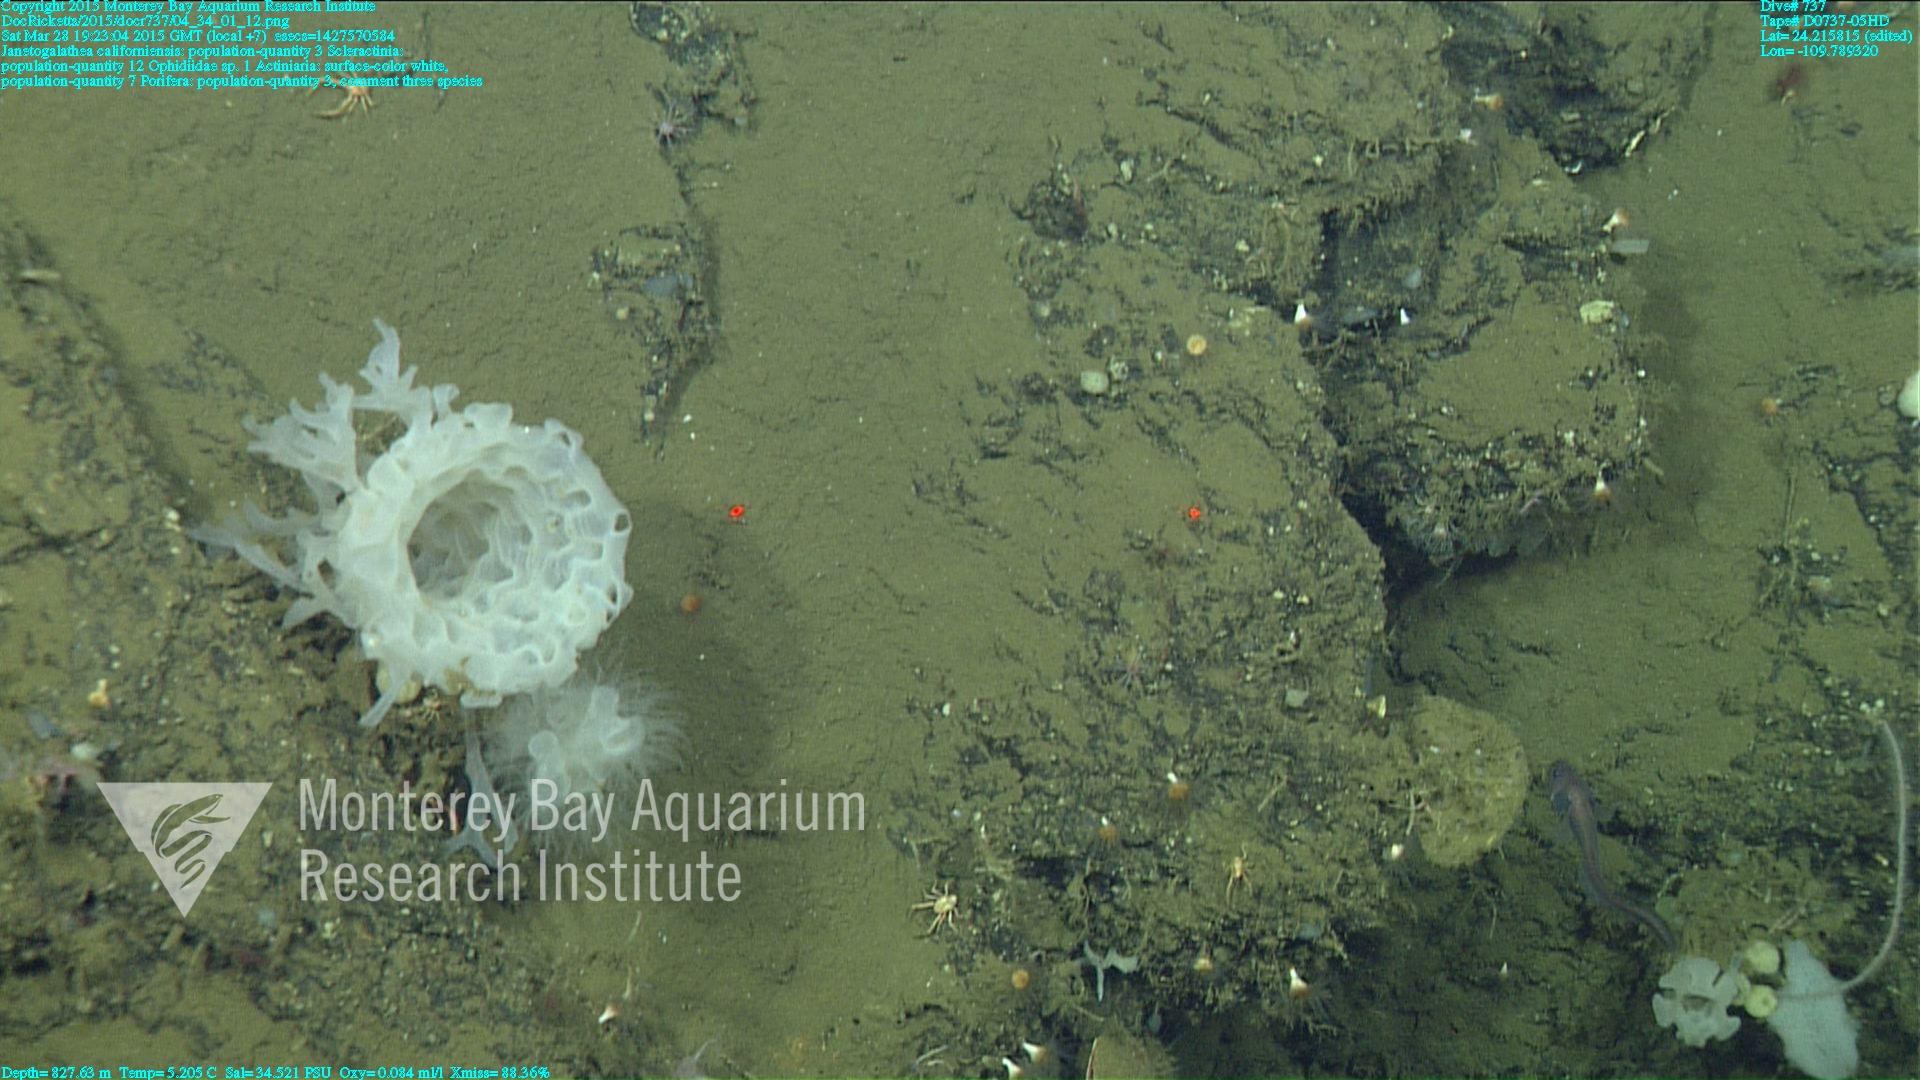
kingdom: Animalia
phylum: Cnidaria
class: Anthozoa
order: Scleractinia
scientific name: Scleractinia
